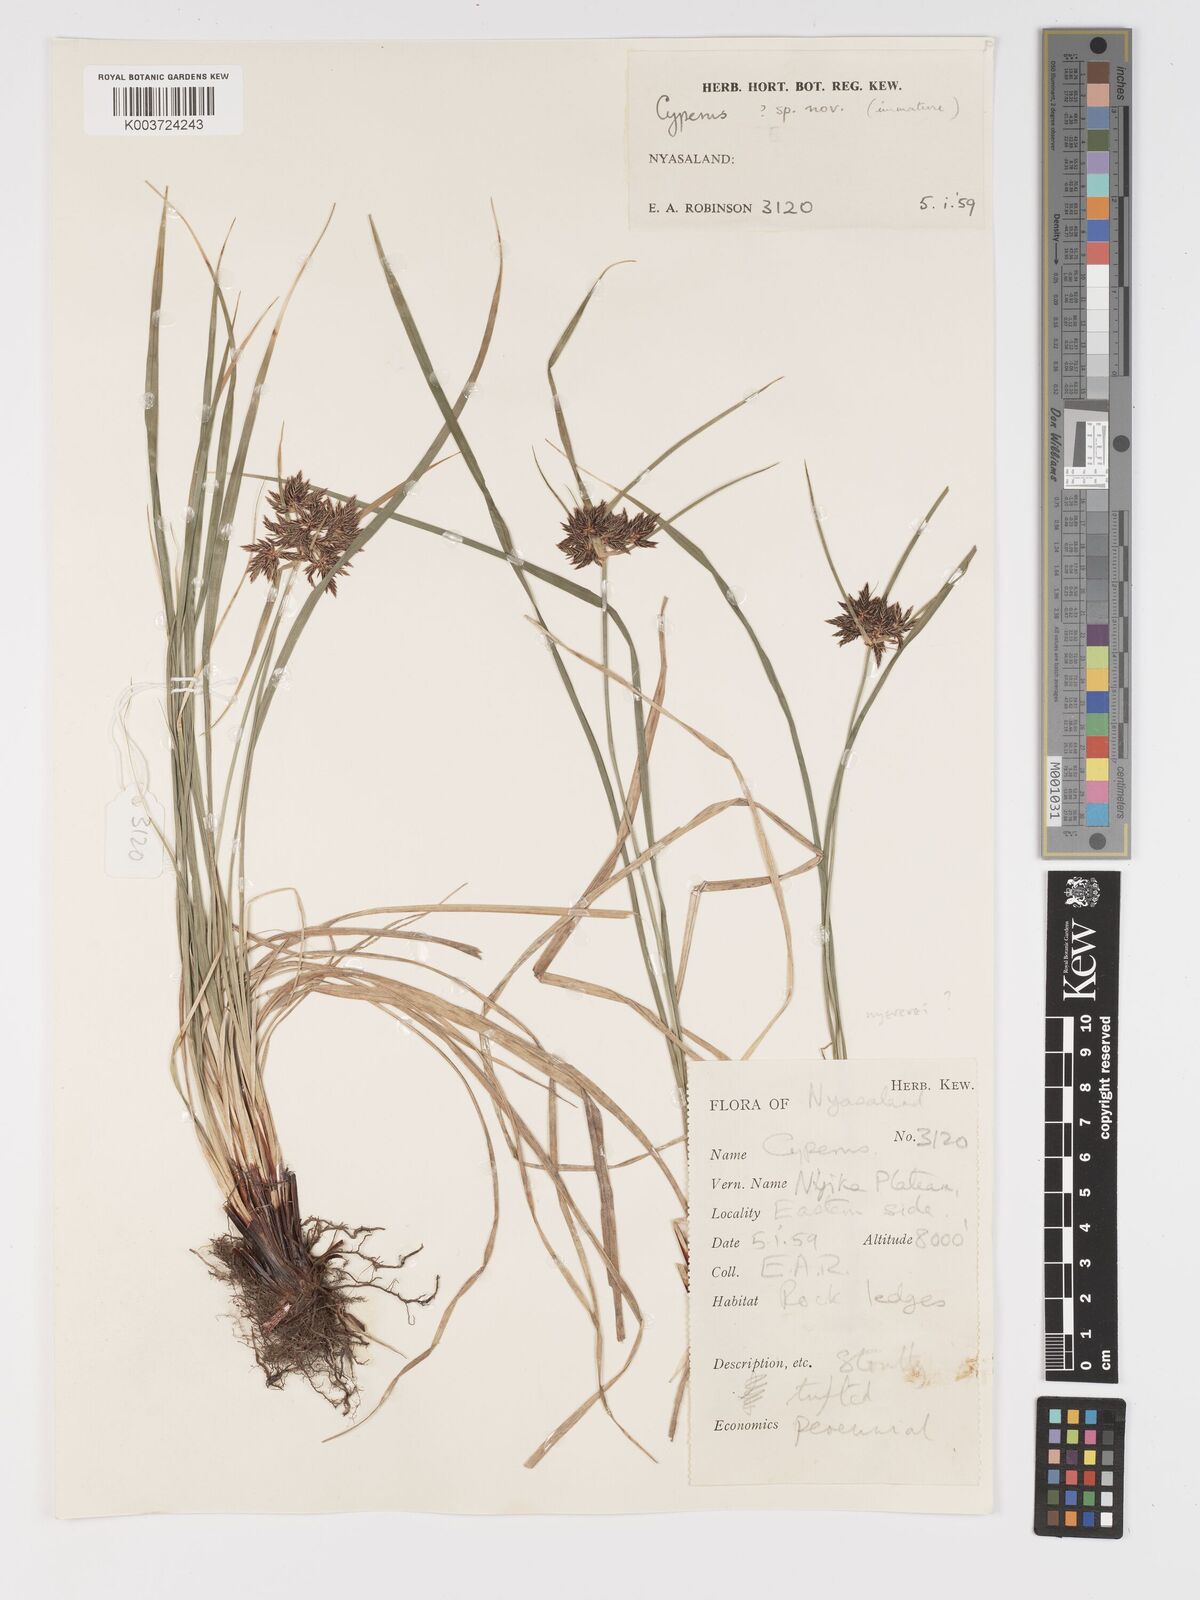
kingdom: Plantae
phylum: Tracheophyta
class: Liliopsida
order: Poales
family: Cyperaceae
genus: Cyperus
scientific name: Cyperus
